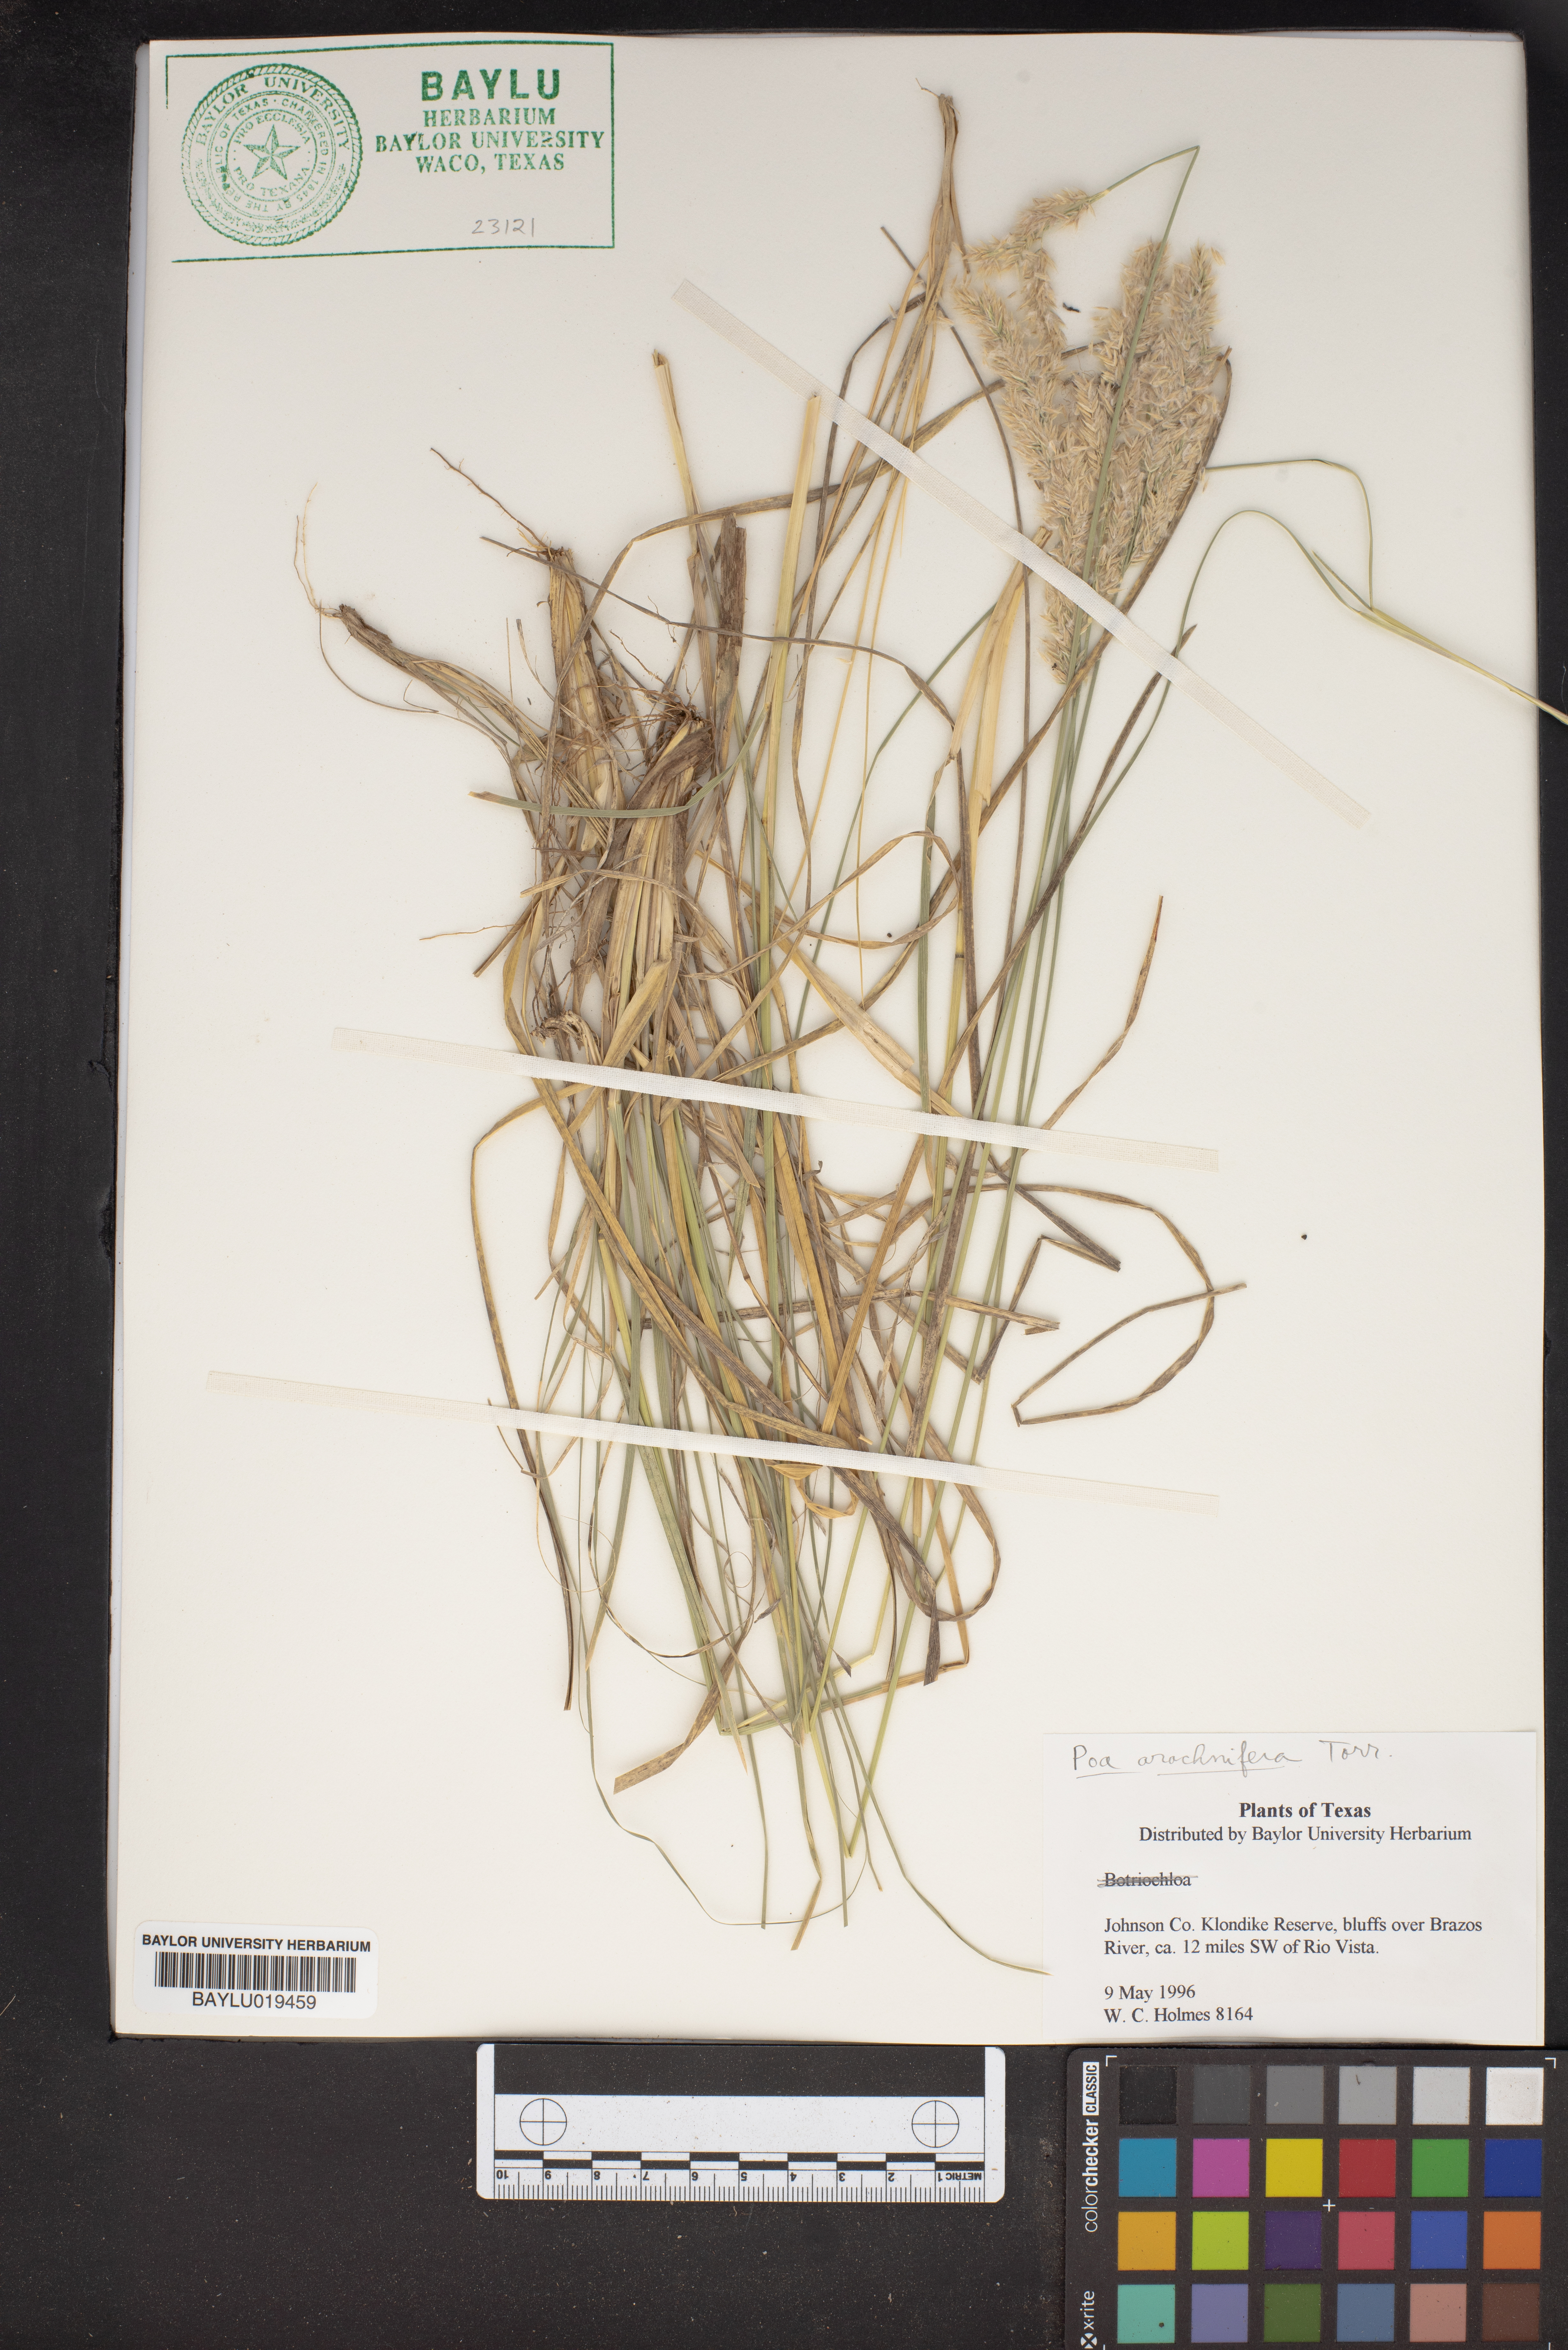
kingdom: Plantae
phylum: Tracheophyta
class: Liliopsida
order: Poales
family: Poaceae
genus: Poa
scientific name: Poa arachnifera
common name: Texas bluegrass
